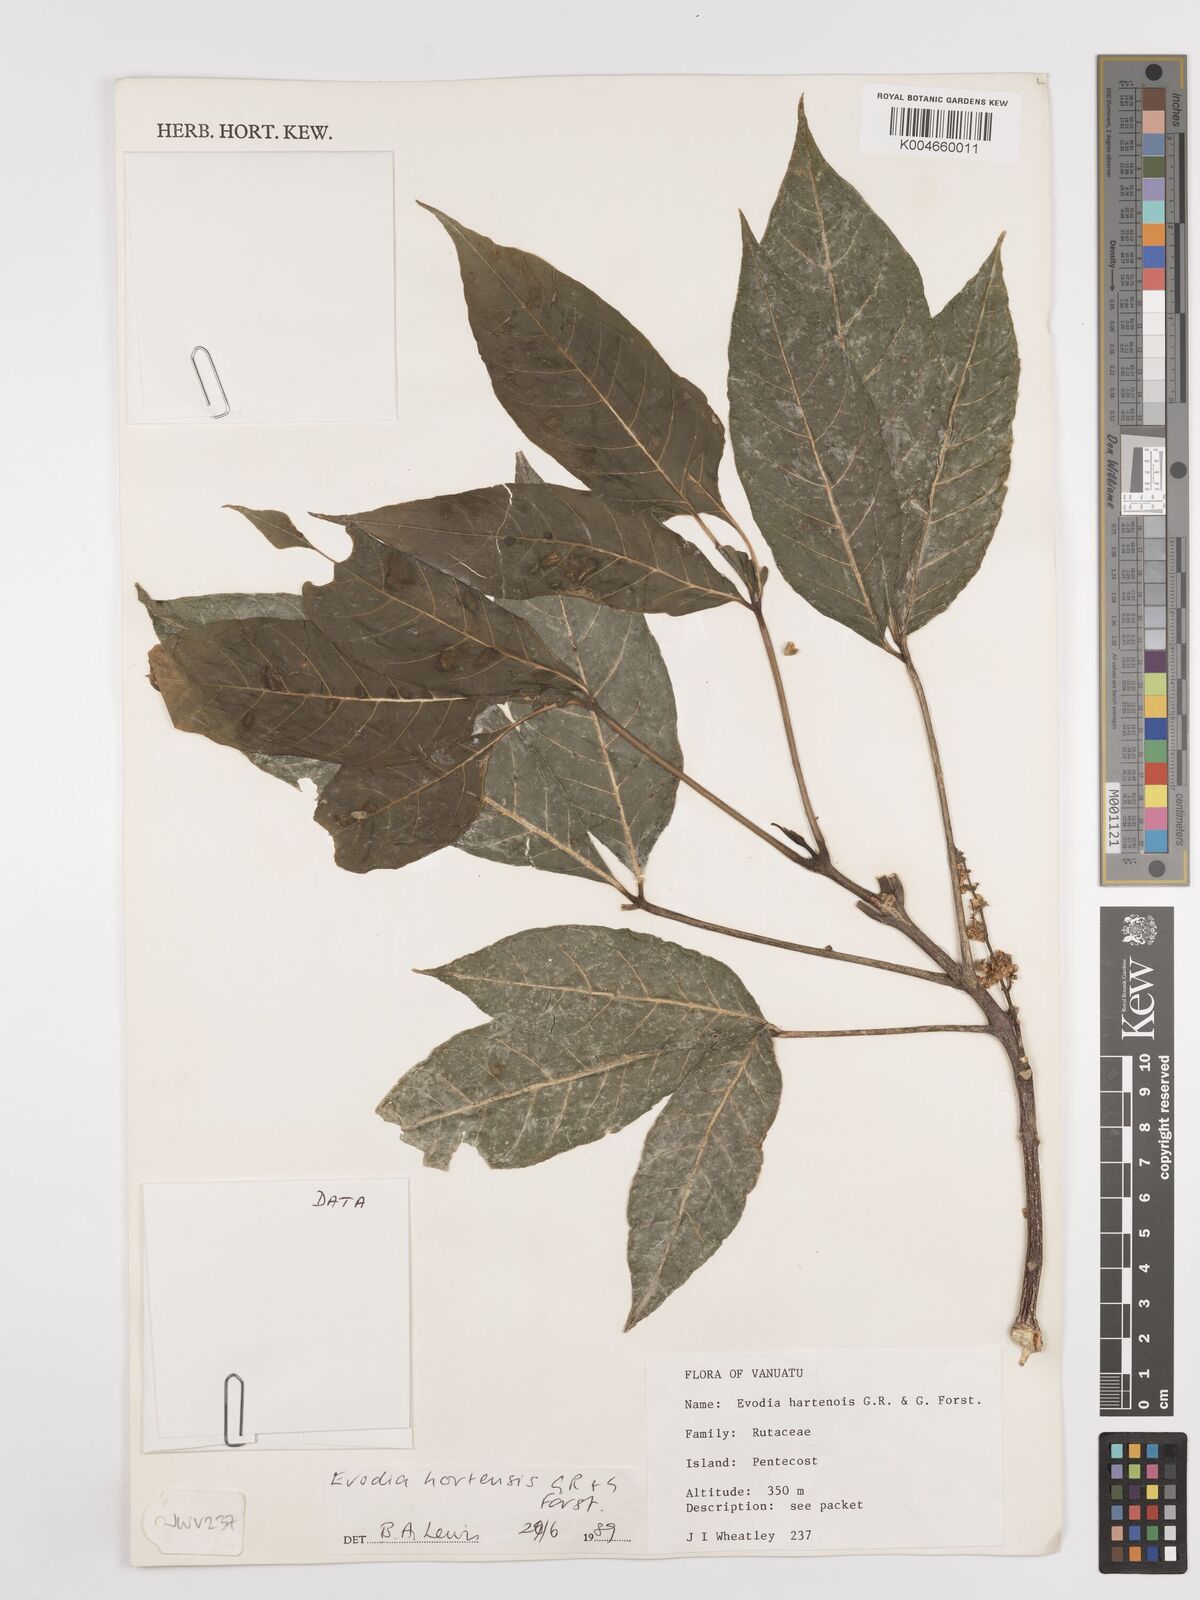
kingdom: Plantae
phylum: Tracheophyta
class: Magnoliopsida
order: Sapindales
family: Rutaceae
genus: Euodia
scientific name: Euodia hortensis
